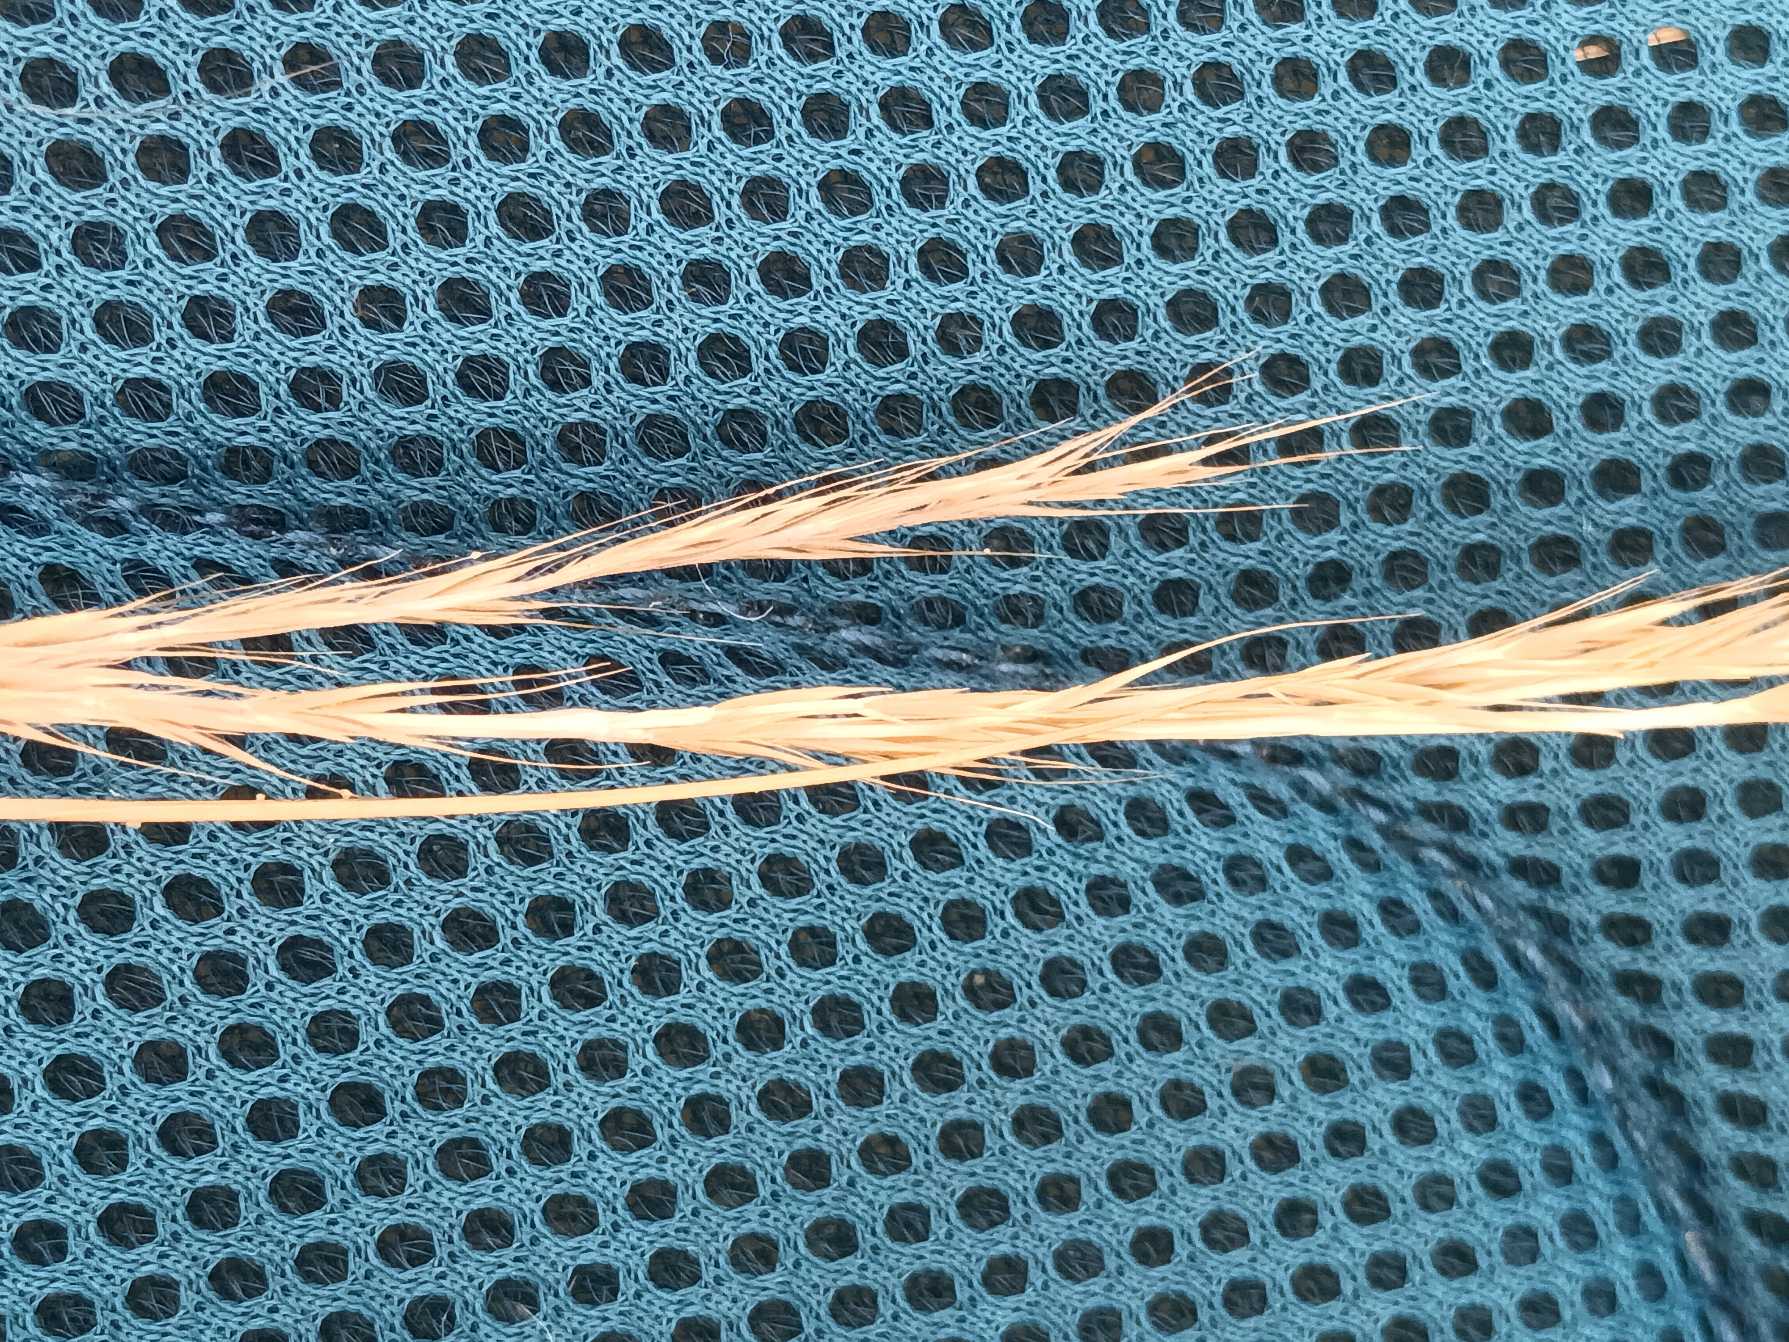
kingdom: Plantae
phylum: Tracheophyta
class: Liliopsida
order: Poales
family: Poaceae
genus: Festuca
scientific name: Festuca myuros
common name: Stor væselhale
